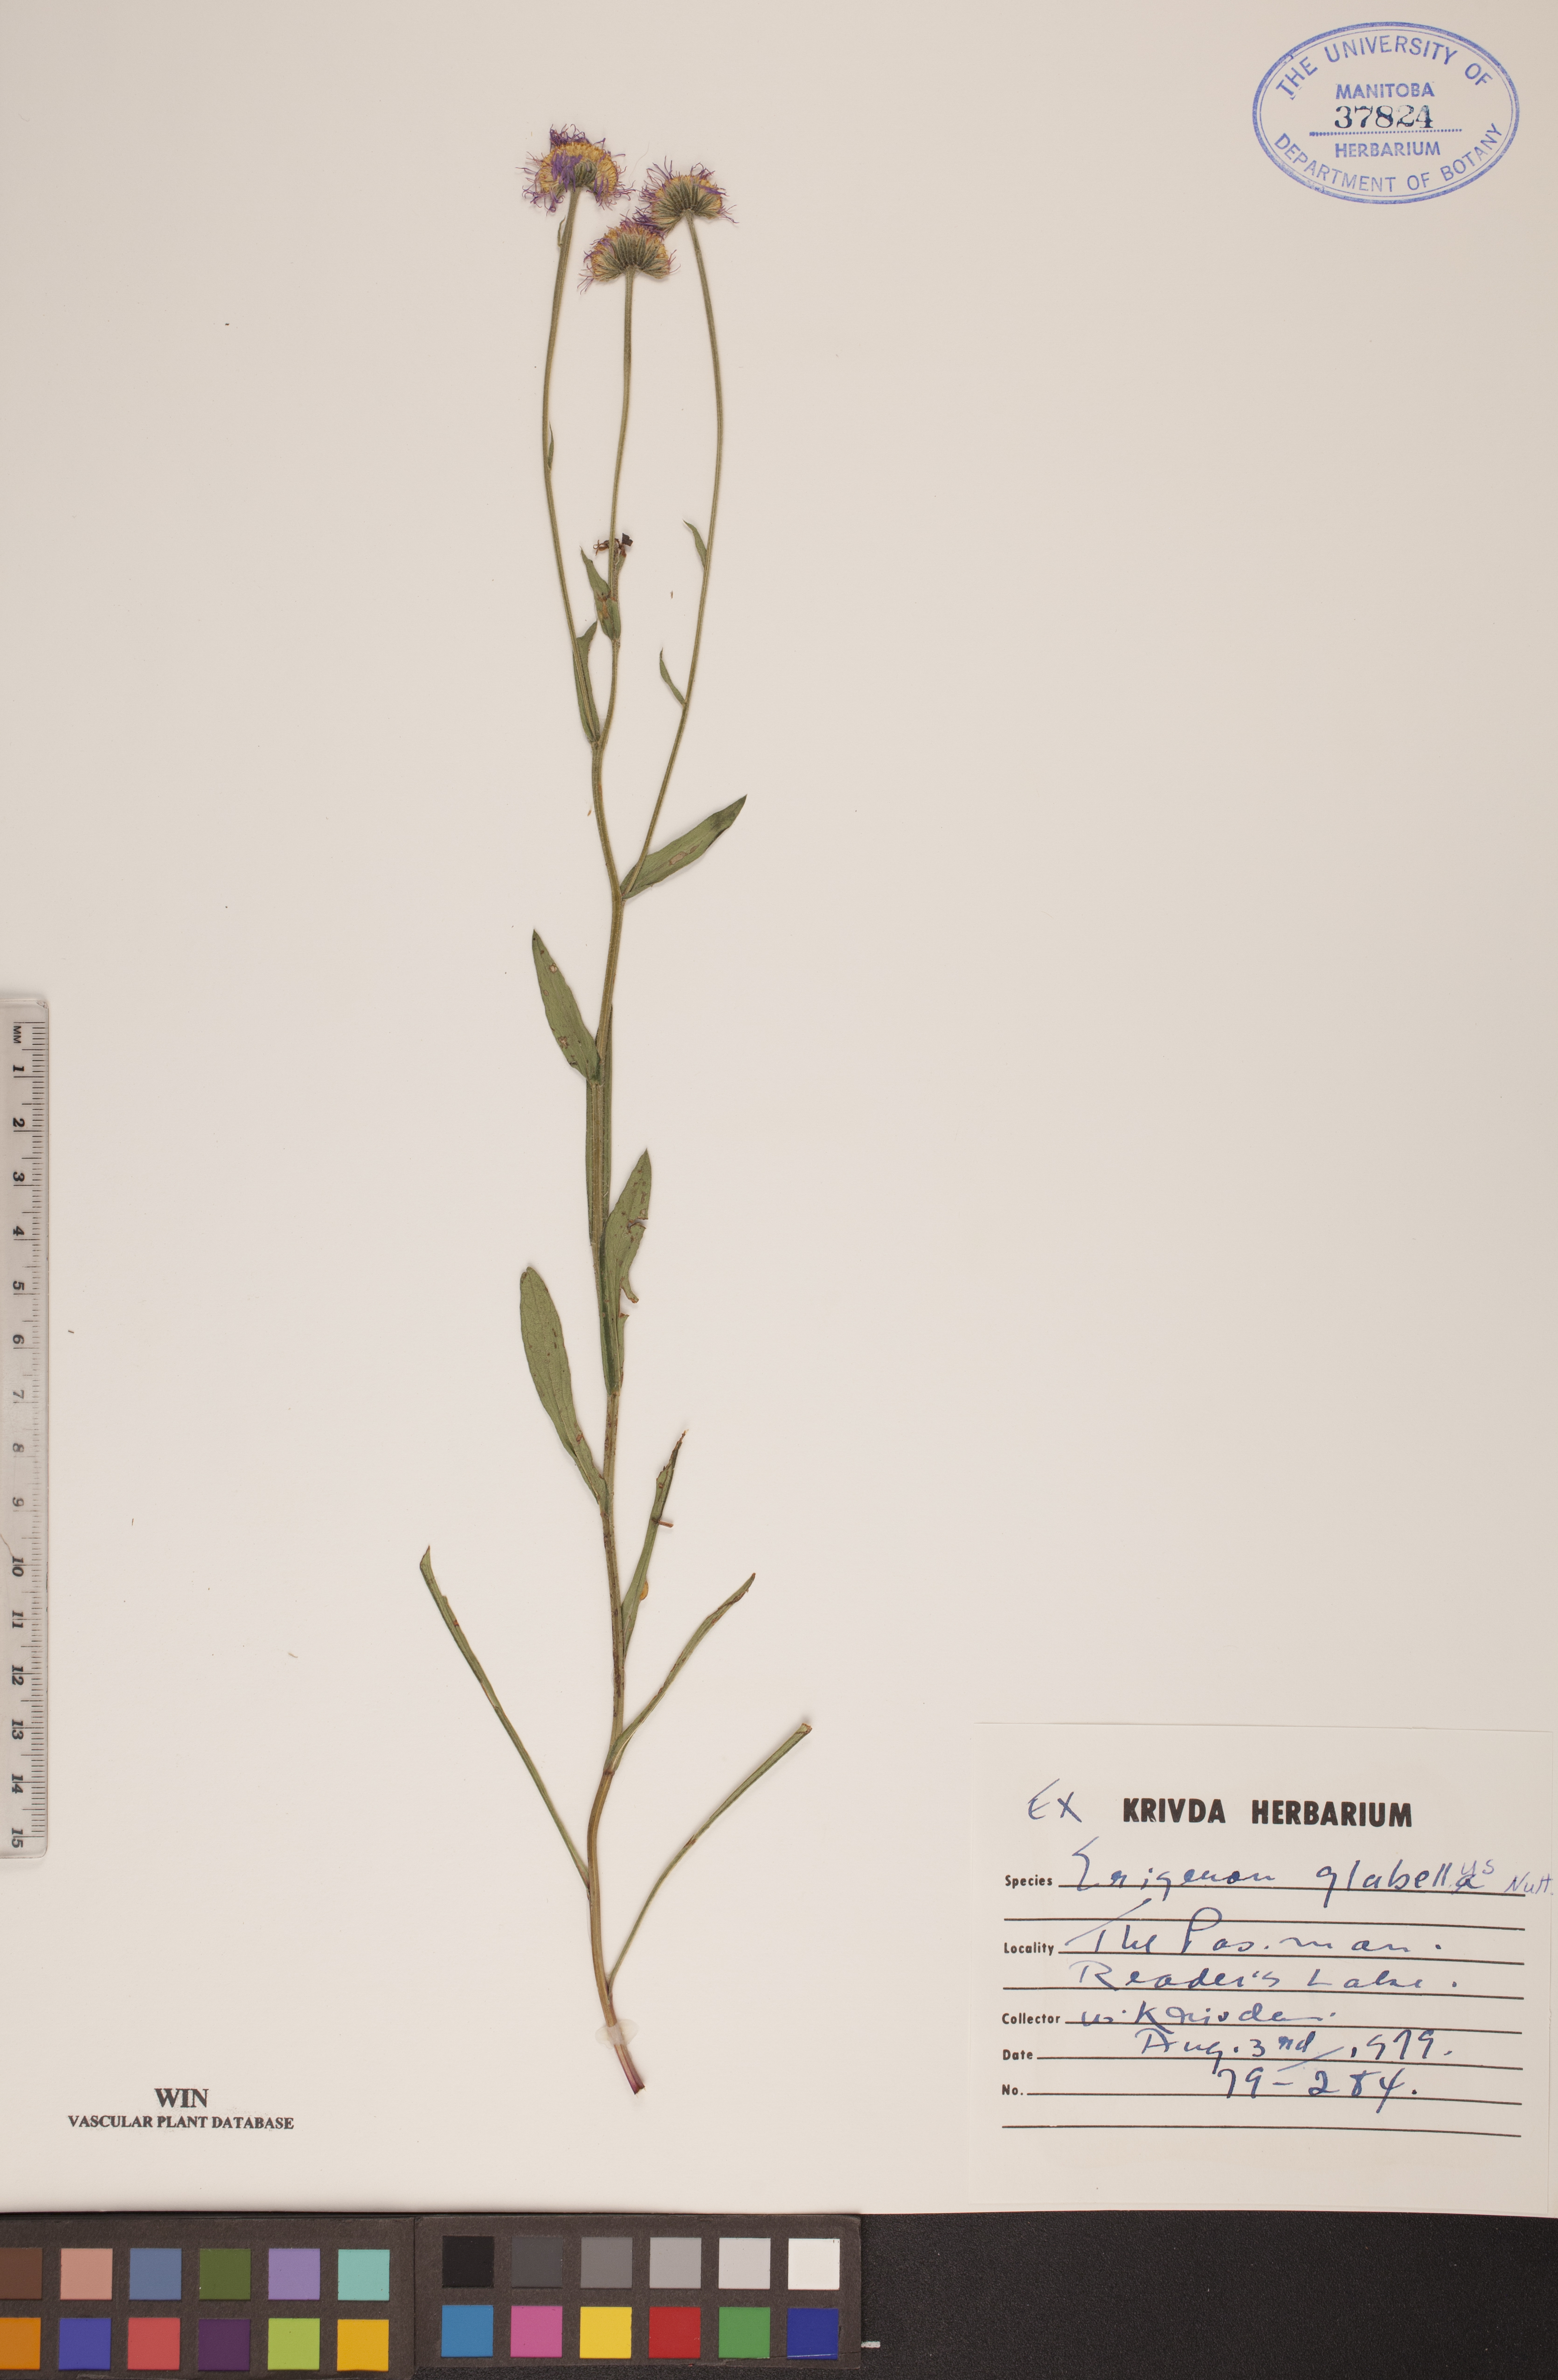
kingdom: Plantae
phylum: Tracheophyta
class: Magnoliopsida
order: Asterales
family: Asteraceae
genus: Erigeron
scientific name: Erigeron glabellus
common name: Smooth fleabane
